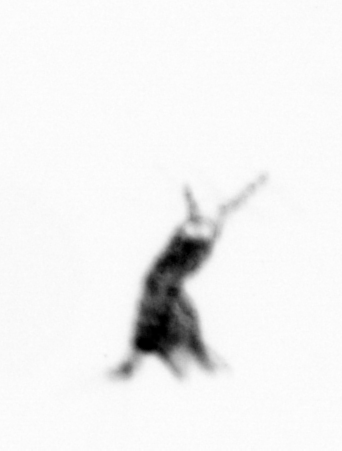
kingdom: Animalia
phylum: Arthropoda
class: Copepoda
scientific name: Copepoda
